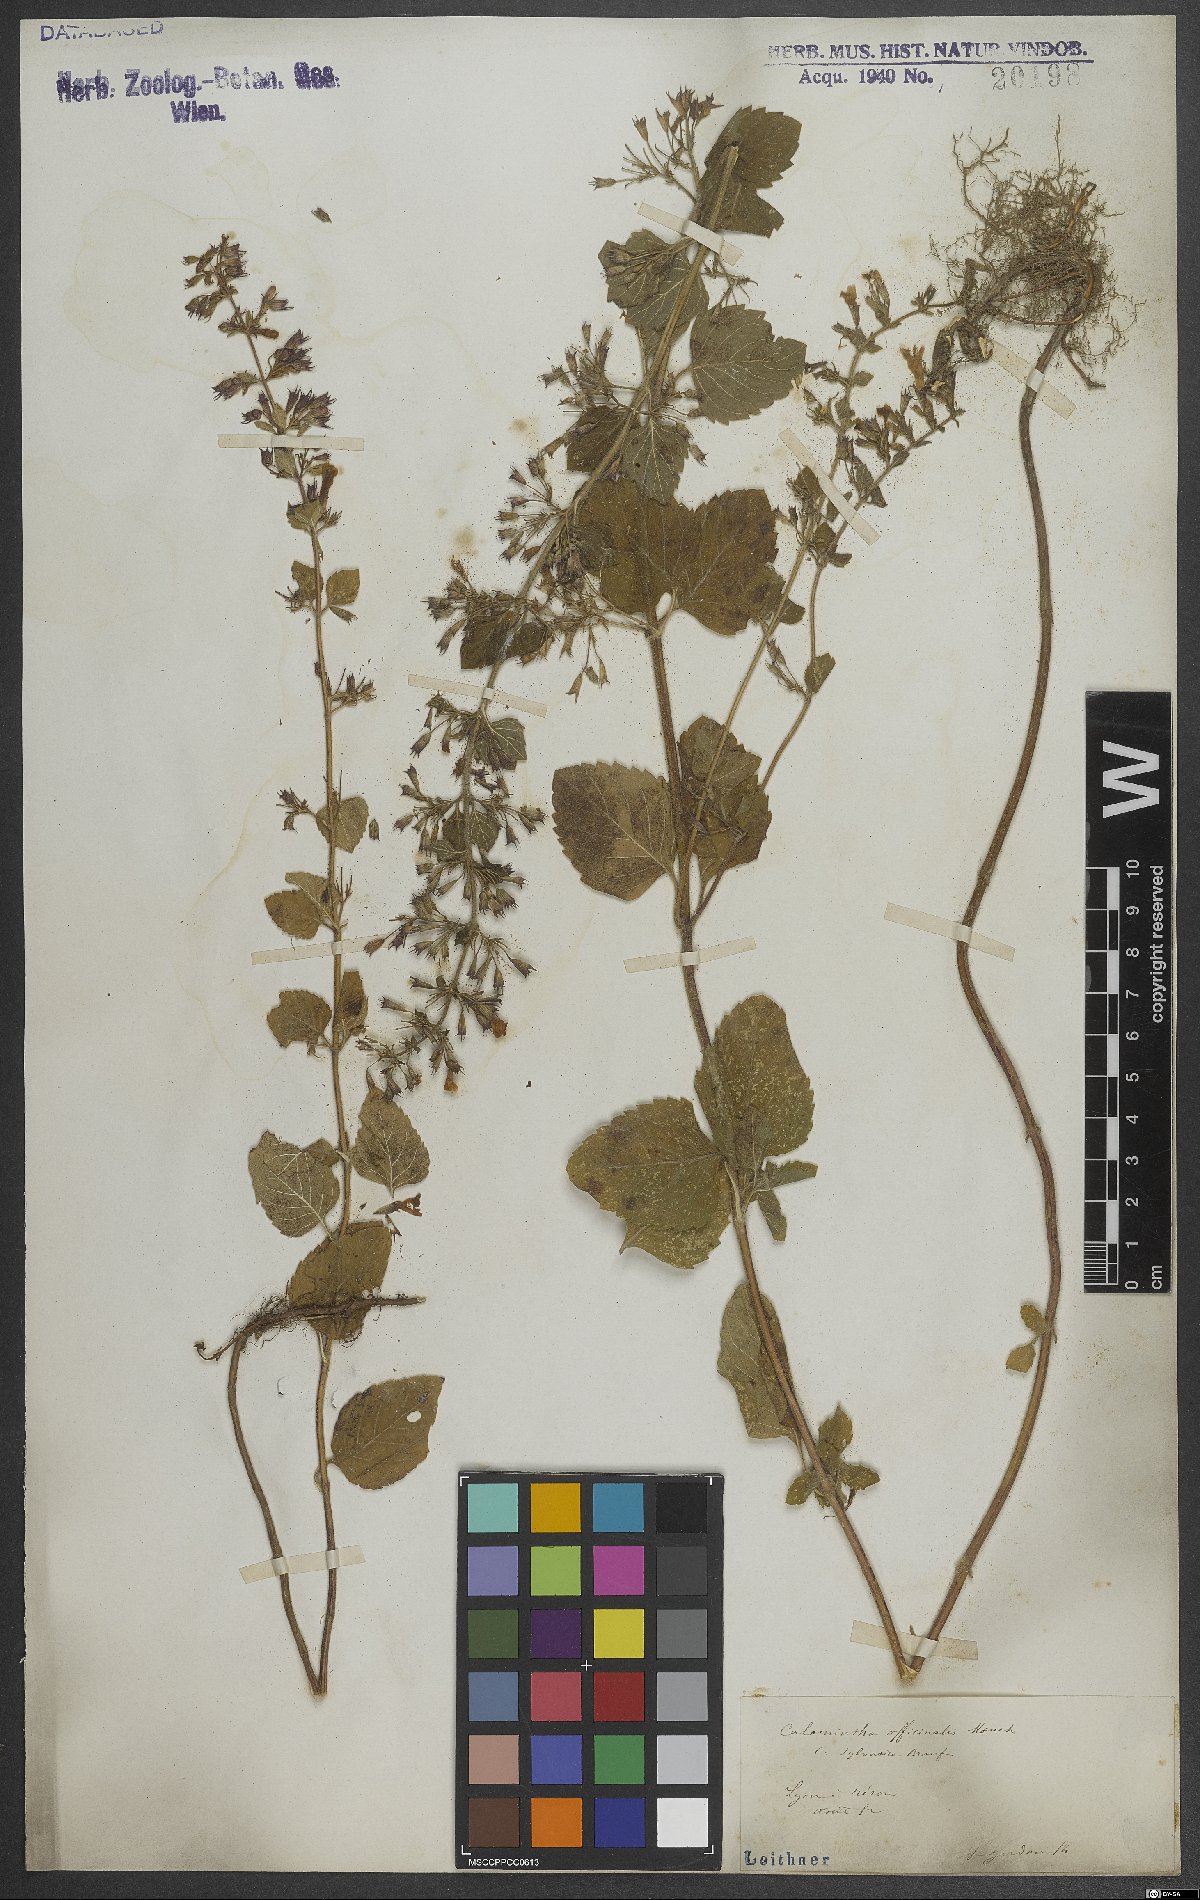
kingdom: Plantae
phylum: Tracheophyta
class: Magnoliopsida
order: Lamiales
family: Lamiaceae
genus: Clinopodium
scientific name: Clinopodium nepeta
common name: Lesser calamint
